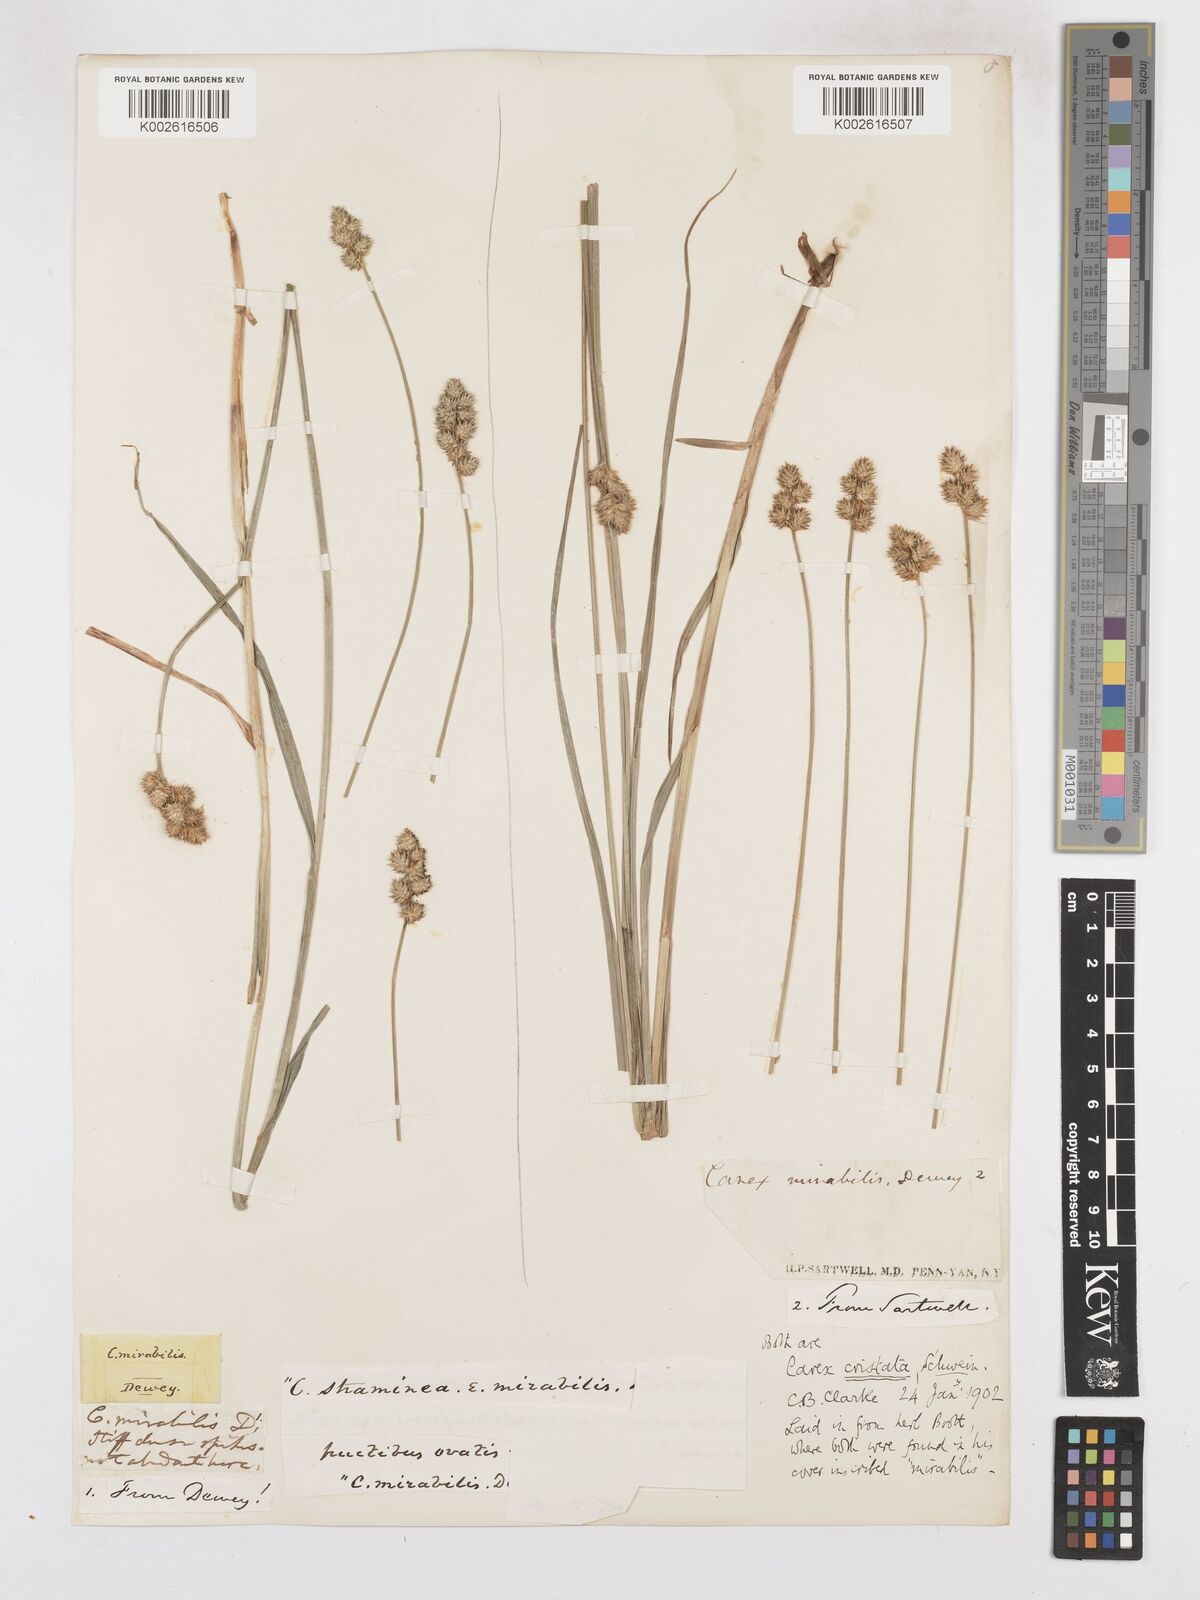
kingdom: Plantae
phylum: Tracheophyta
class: Liliopsida
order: Poales
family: Cyperaceae
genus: Carex
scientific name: Carex cristatella
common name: Crested oval sedge
